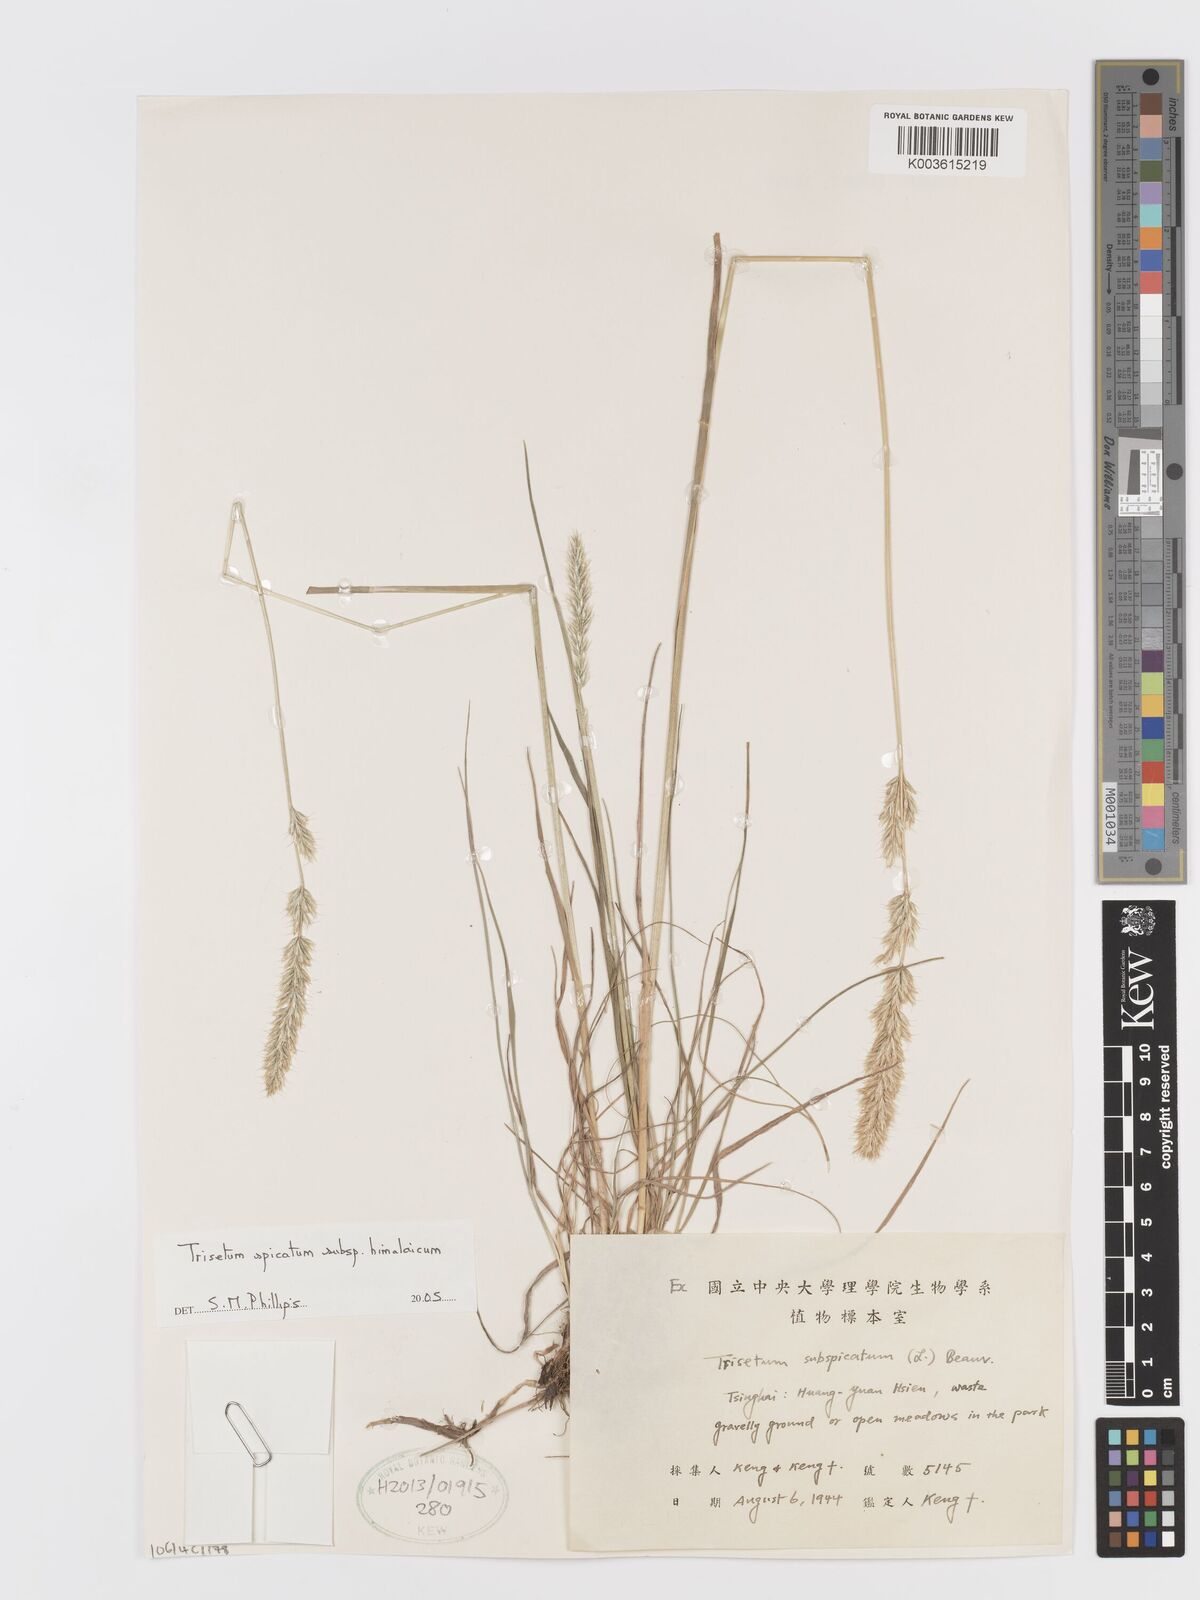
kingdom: Plantae
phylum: Tracheophyta
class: Liliopsida
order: Poales
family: Poaceae
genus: Koeleria
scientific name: Koeleria spicata
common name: Mountain trisetum
